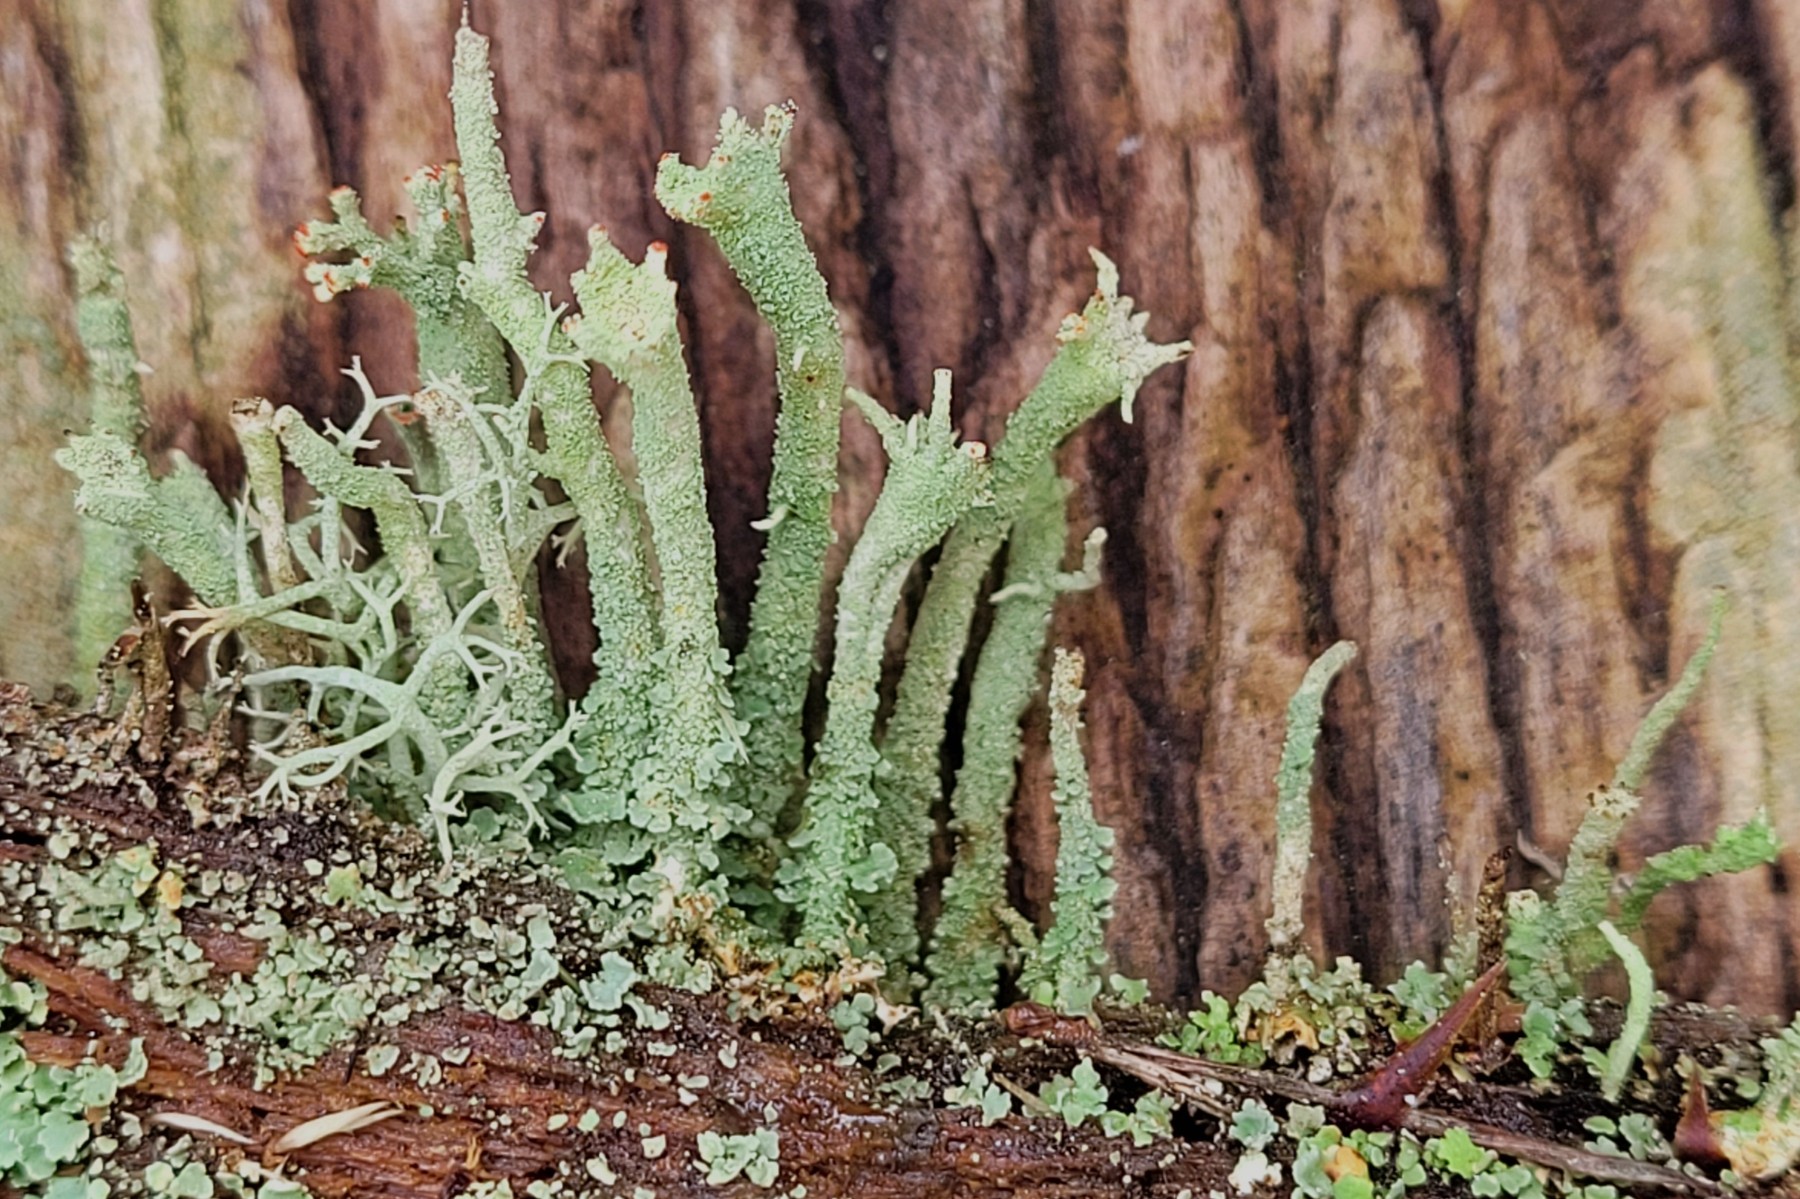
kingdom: Fungi
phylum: Ascomycota
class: Lecanoromycetes
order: Lecanorales
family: Cladoniaceae
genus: Cladonia
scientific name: Cladonia polydactyla
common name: vifte-bægerlav
